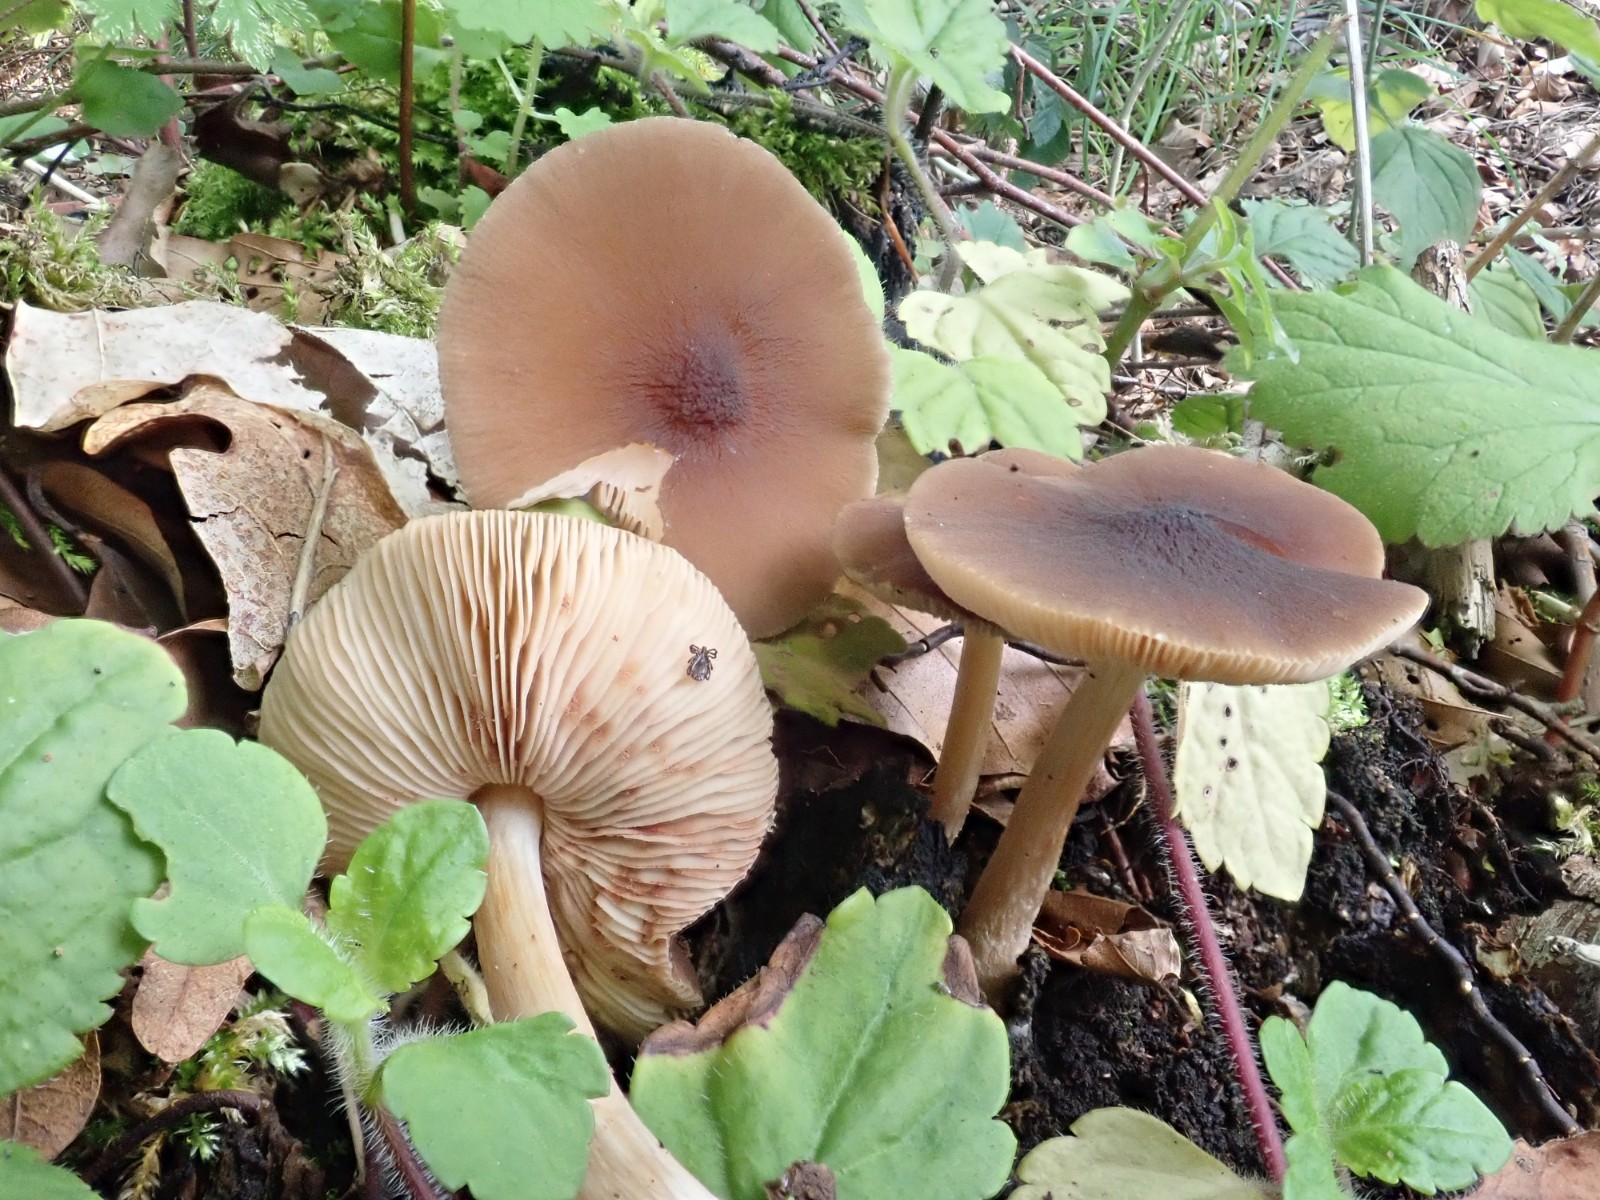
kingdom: Fungi
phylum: Basidiomycota
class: Agaricomycetes
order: Agaricales
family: Pluteaceae
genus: Pluteus
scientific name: Pluteus phlebophorus
